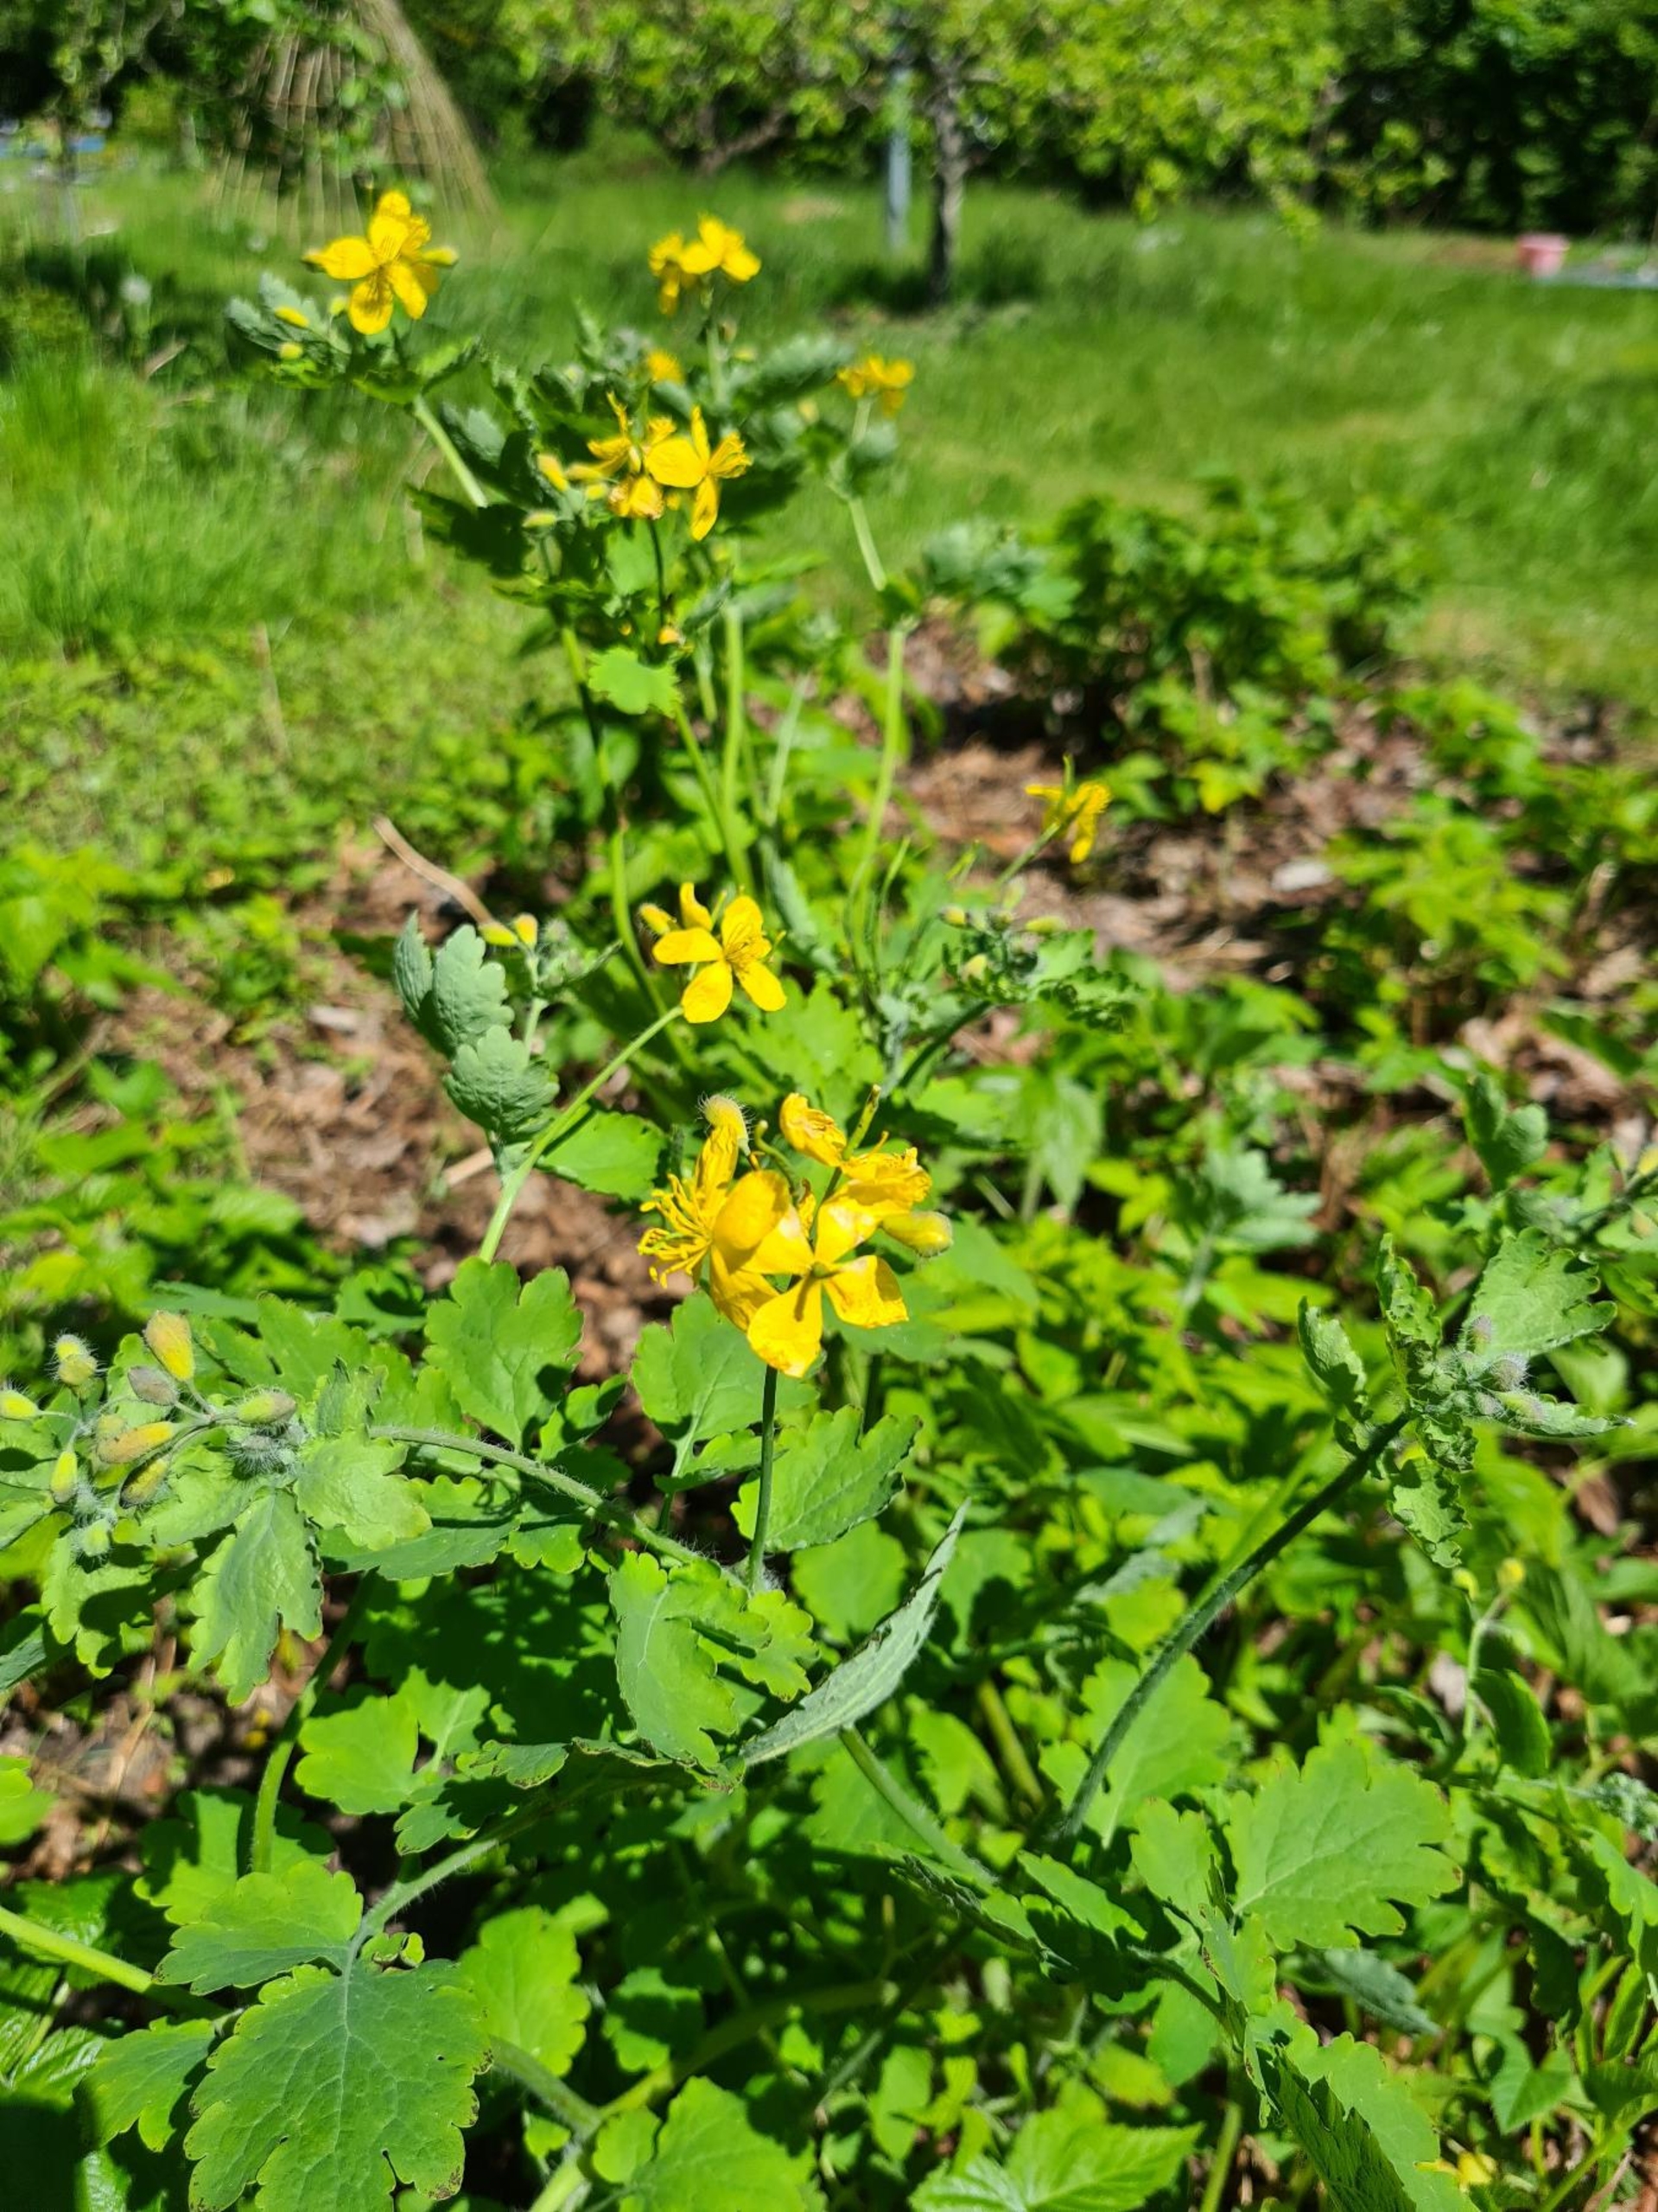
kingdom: Plantae
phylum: Tracheophyta
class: Magnoliopsida
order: Ranunculales
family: Papaveraceae
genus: Chelidonium
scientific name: Chelidonium majus
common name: Svaleurt
